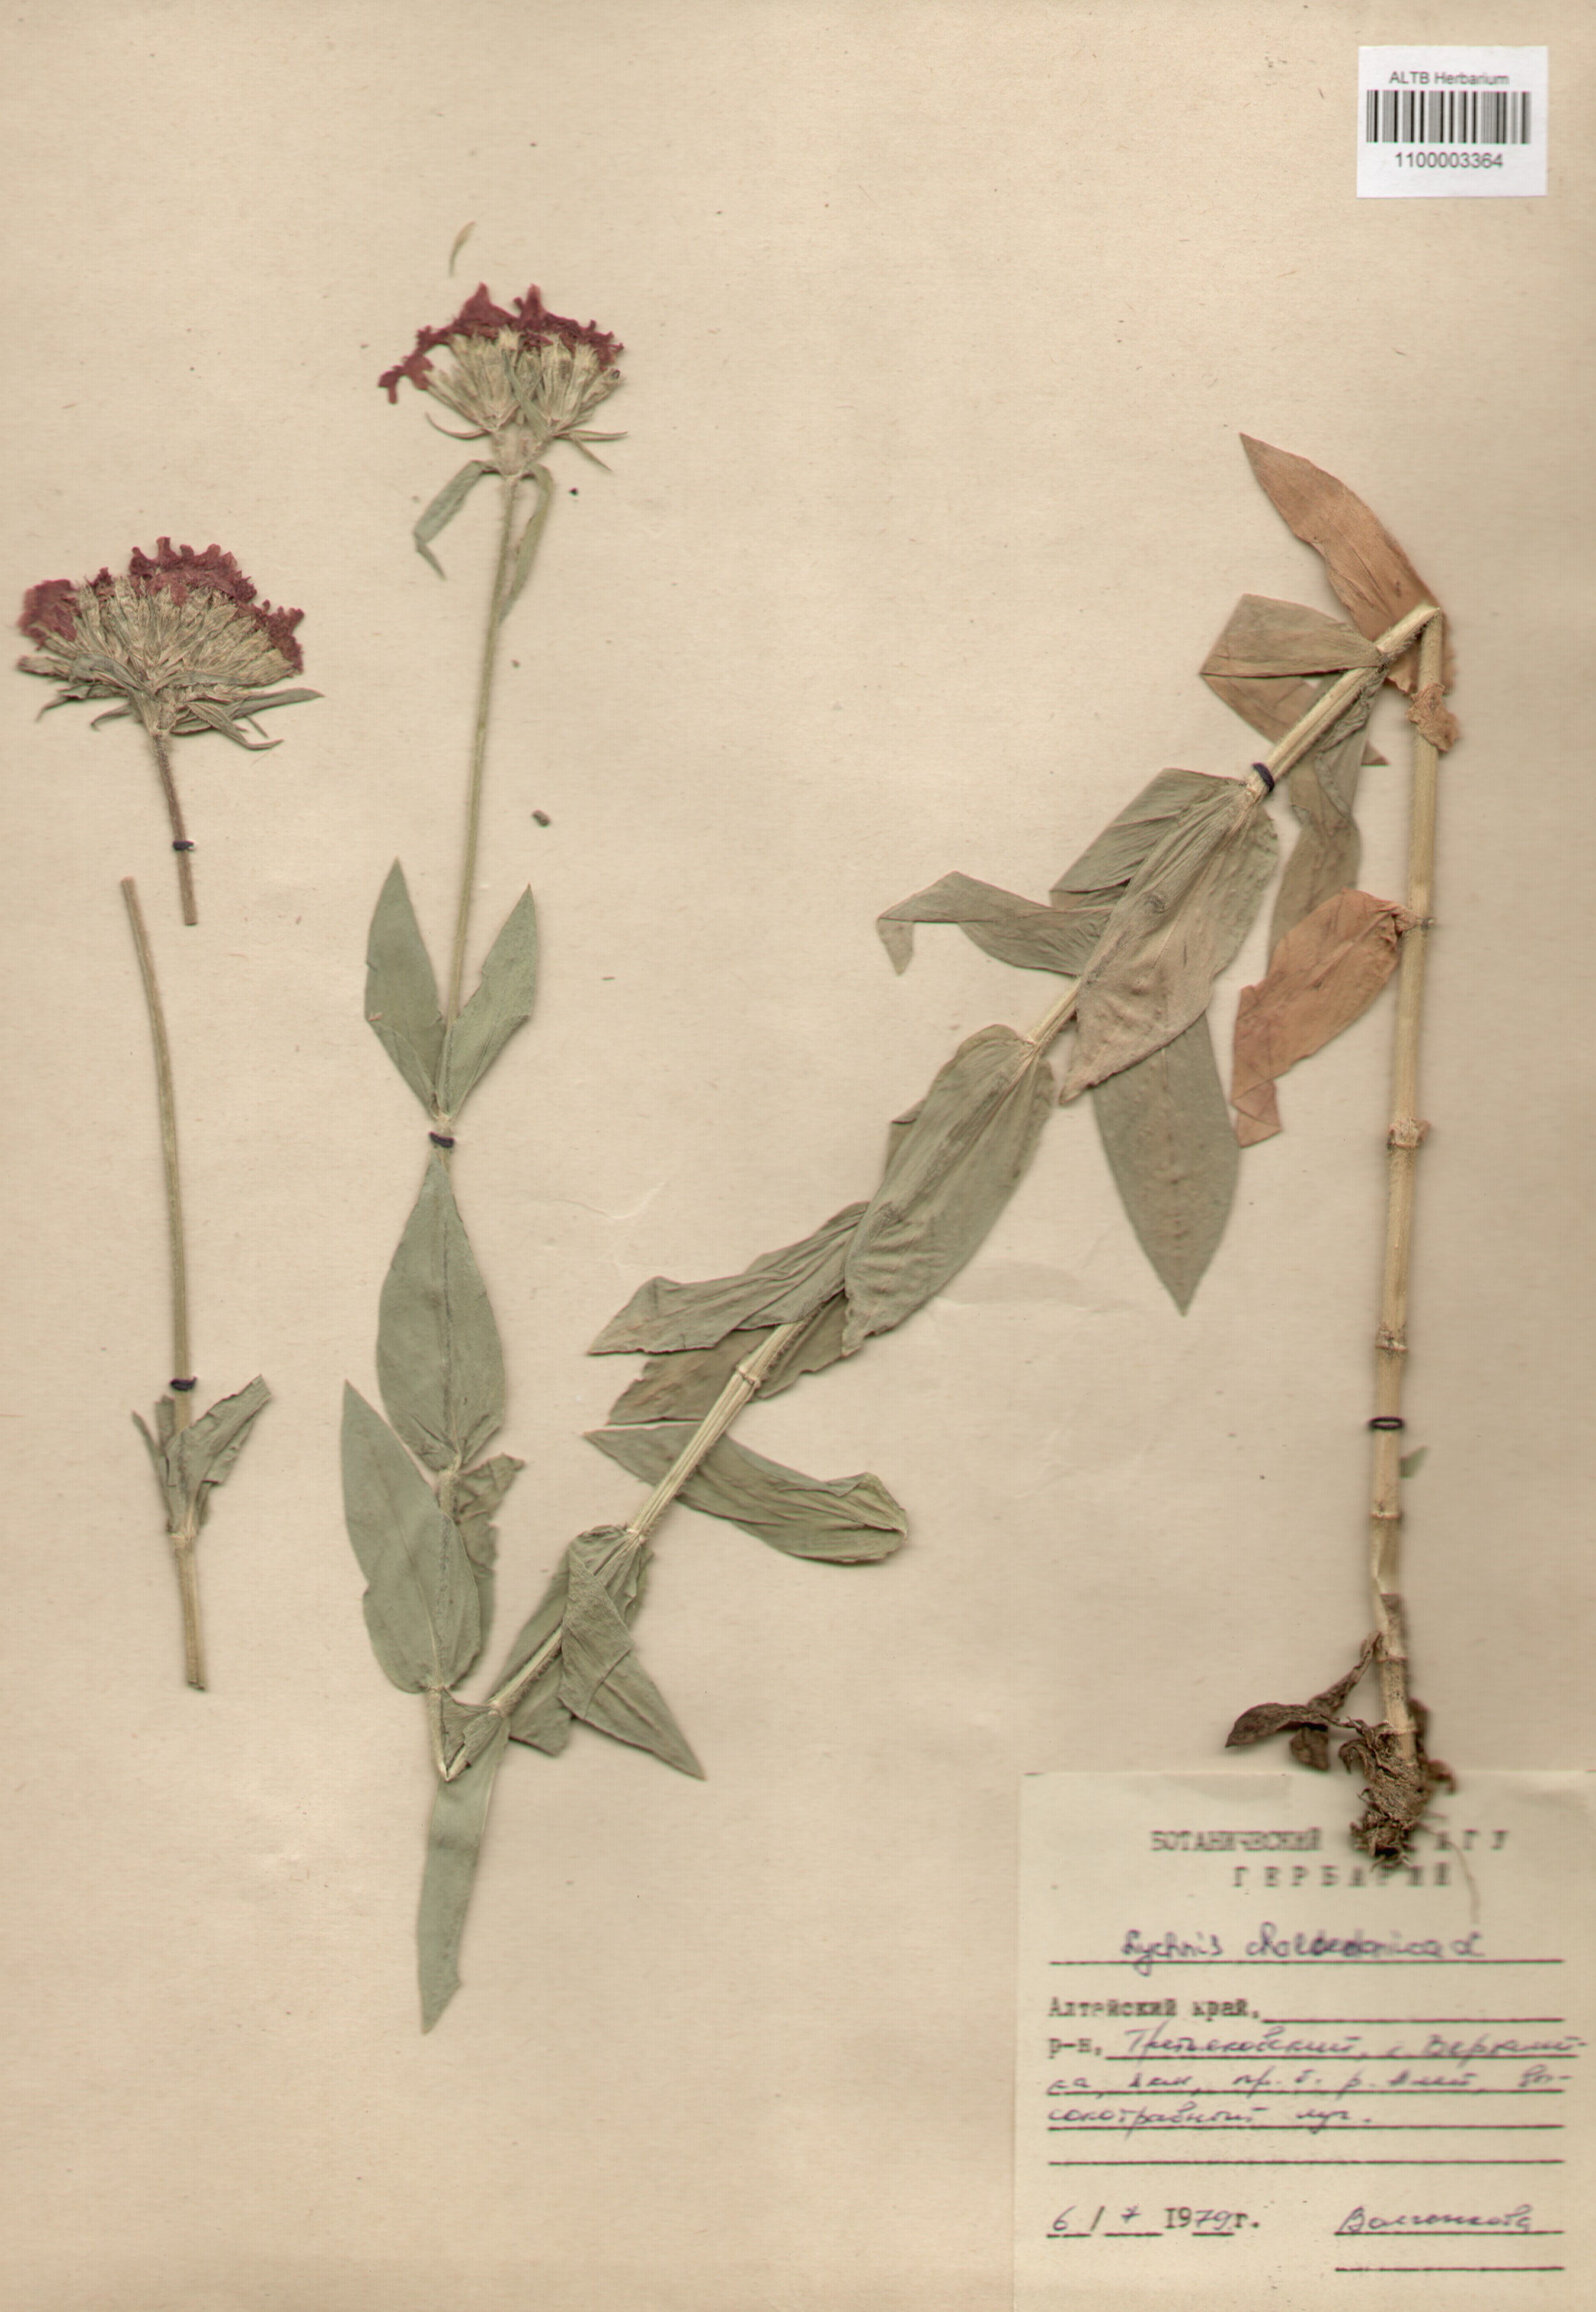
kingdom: Plantae
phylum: Tracheophyta
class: Magnoliopsida
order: Caryophyllales
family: Caryophyllaceae
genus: Silene
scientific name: Silene chalcedonica
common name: Maltese-cross
